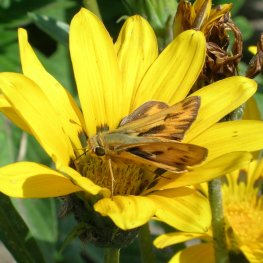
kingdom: Animalia
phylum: Arthropoda
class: Insecta
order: Lepidoptera
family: Hesperiidae
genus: Hylephila
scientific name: Hylephila phyleus
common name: Fiery Skipper
